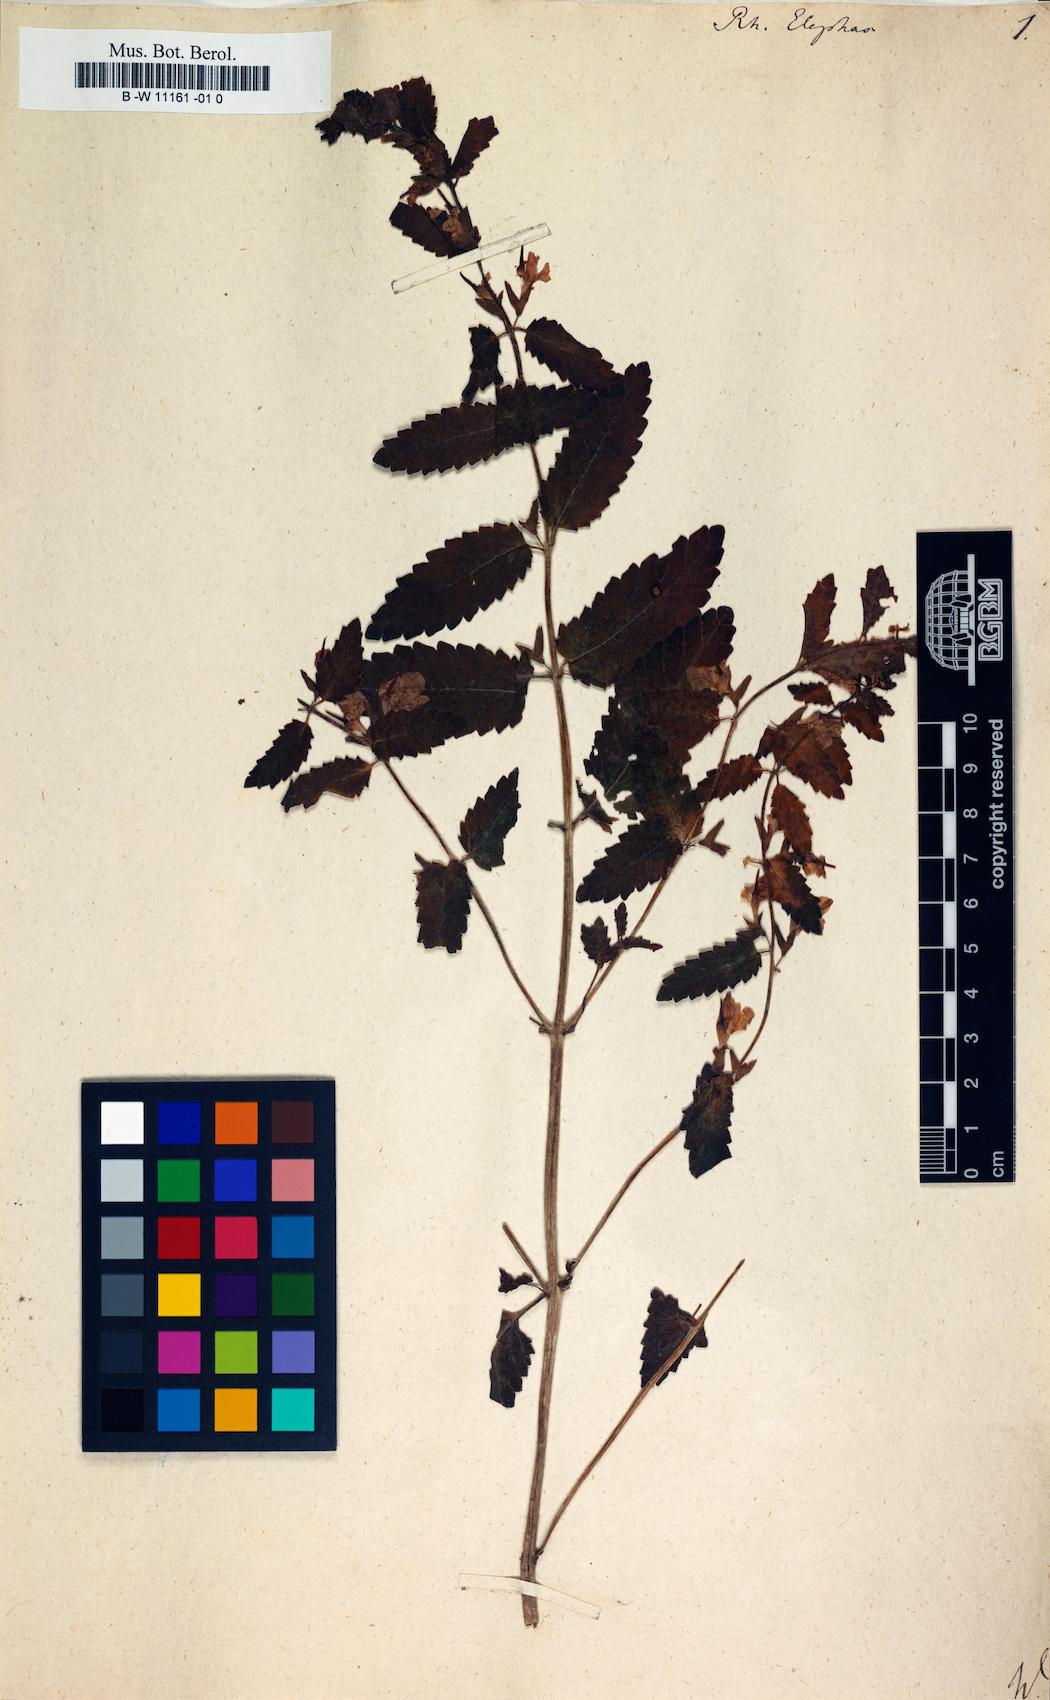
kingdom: Plantae
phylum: Tracheophyta
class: Magnoliopsida
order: Lamiales
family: Orobanchaceae
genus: Rhynchocorys
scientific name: Rhynchocorys elephas
